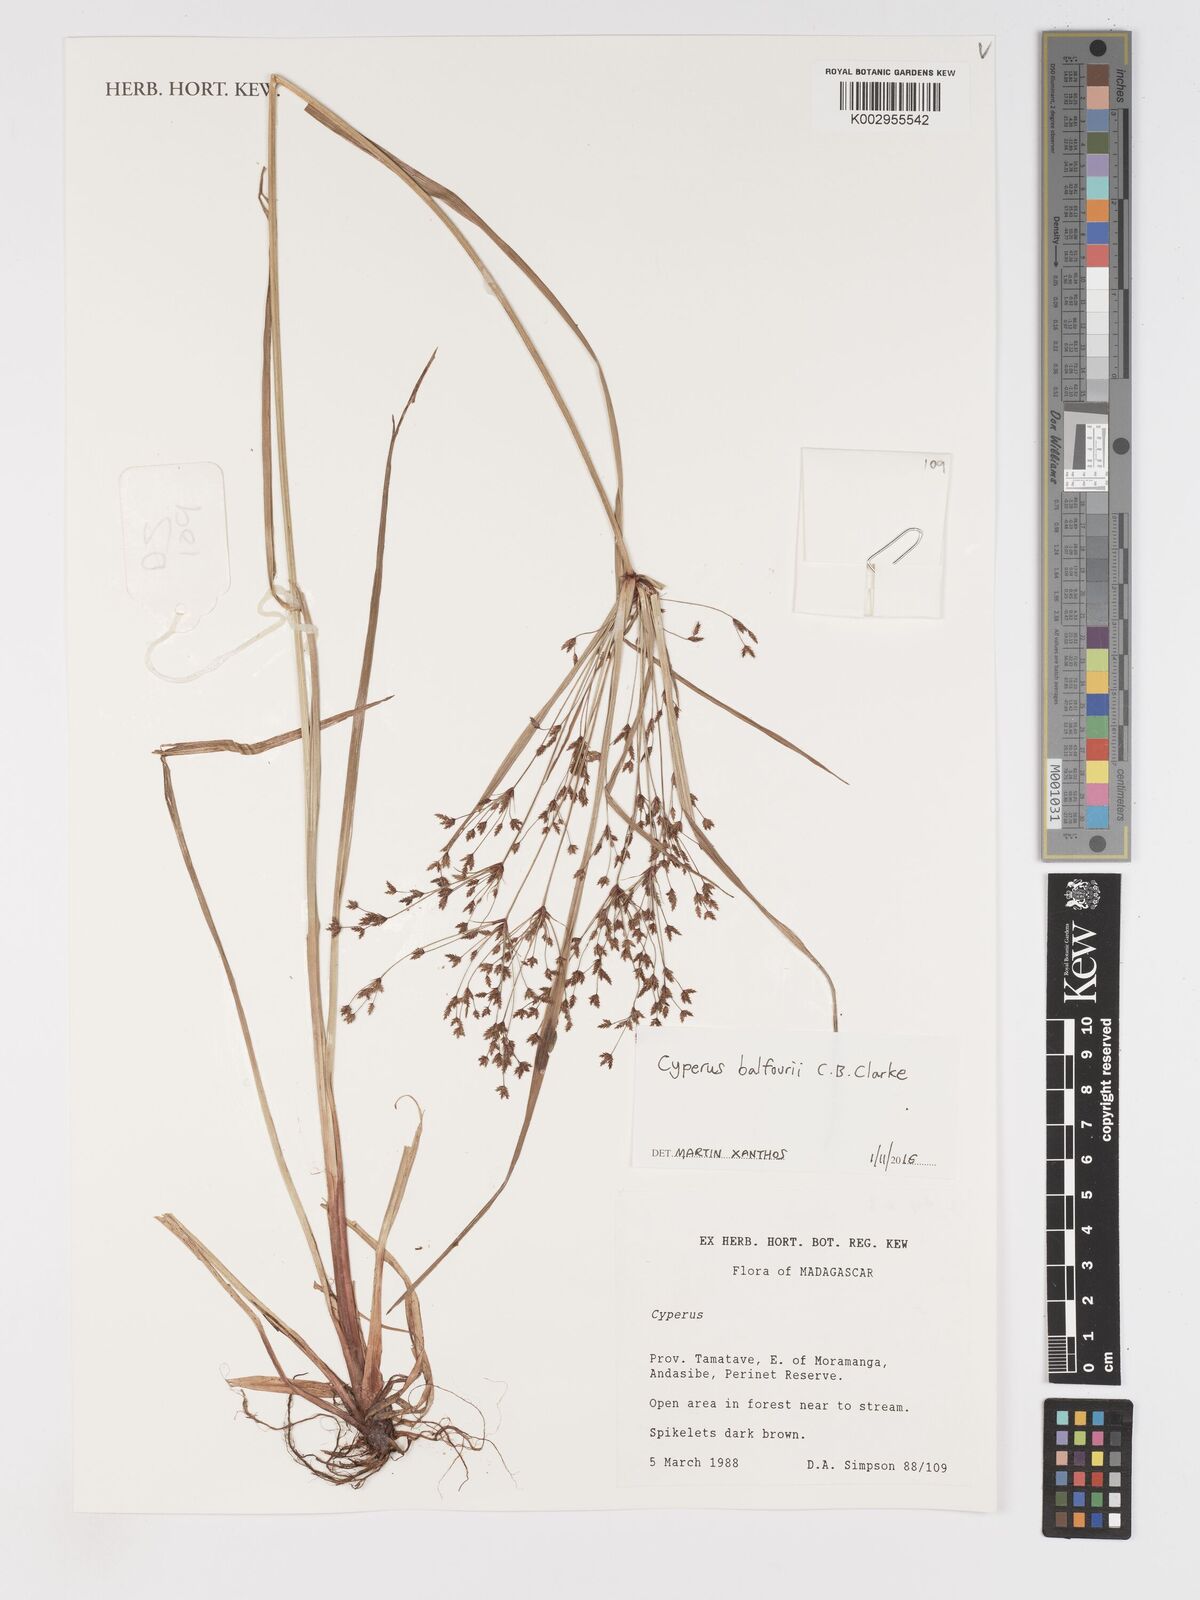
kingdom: Plantae
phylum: Tracheophyta
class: Liliopsida
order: Poales
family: Cyperaceae
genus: Cyperus
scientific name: Cyperus longifolius
